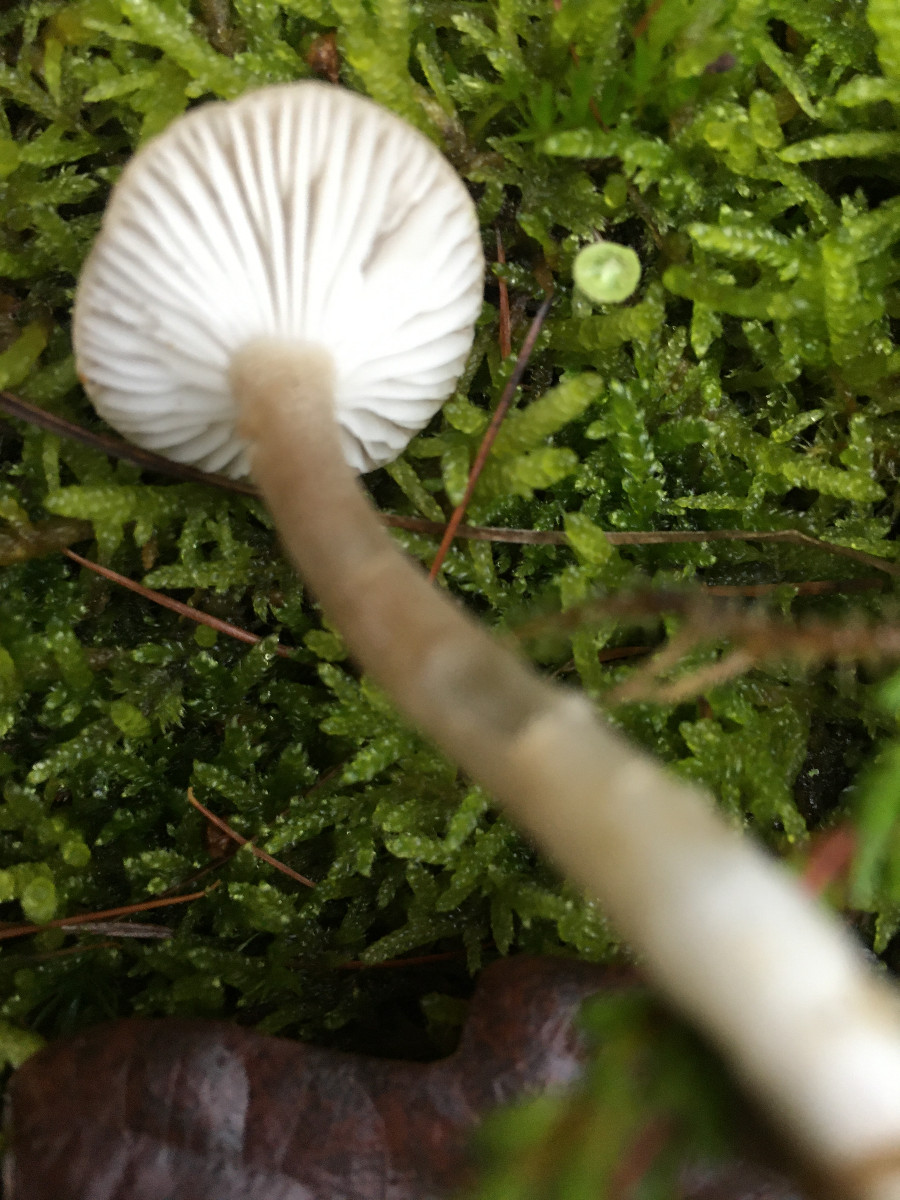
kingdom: Fungi
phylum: Basidiomycota
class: Agaricomycetes
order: Agaricales
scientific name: Agaricales
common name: champignonordenen
